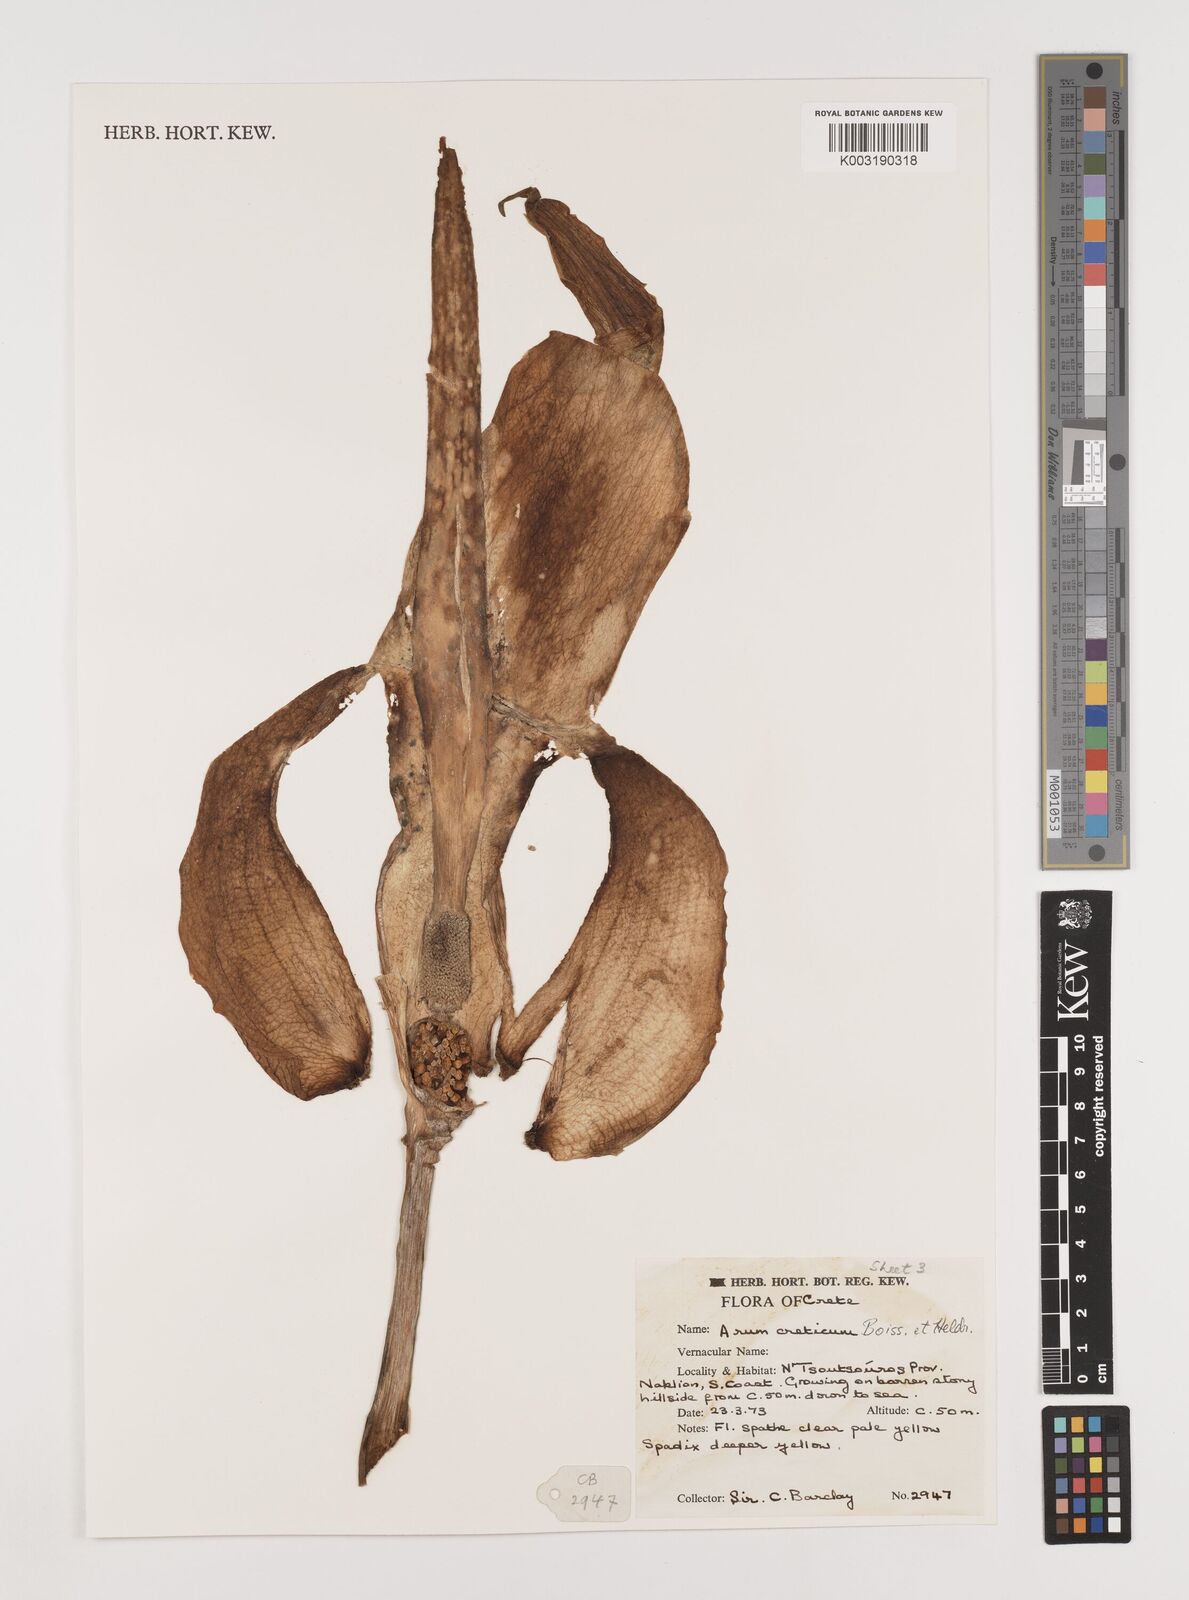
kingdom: Plantae
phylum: Tracheophyta
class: Liliopsida
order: Alismatales
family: Araceae
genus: Arum
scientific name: Arum creticum
